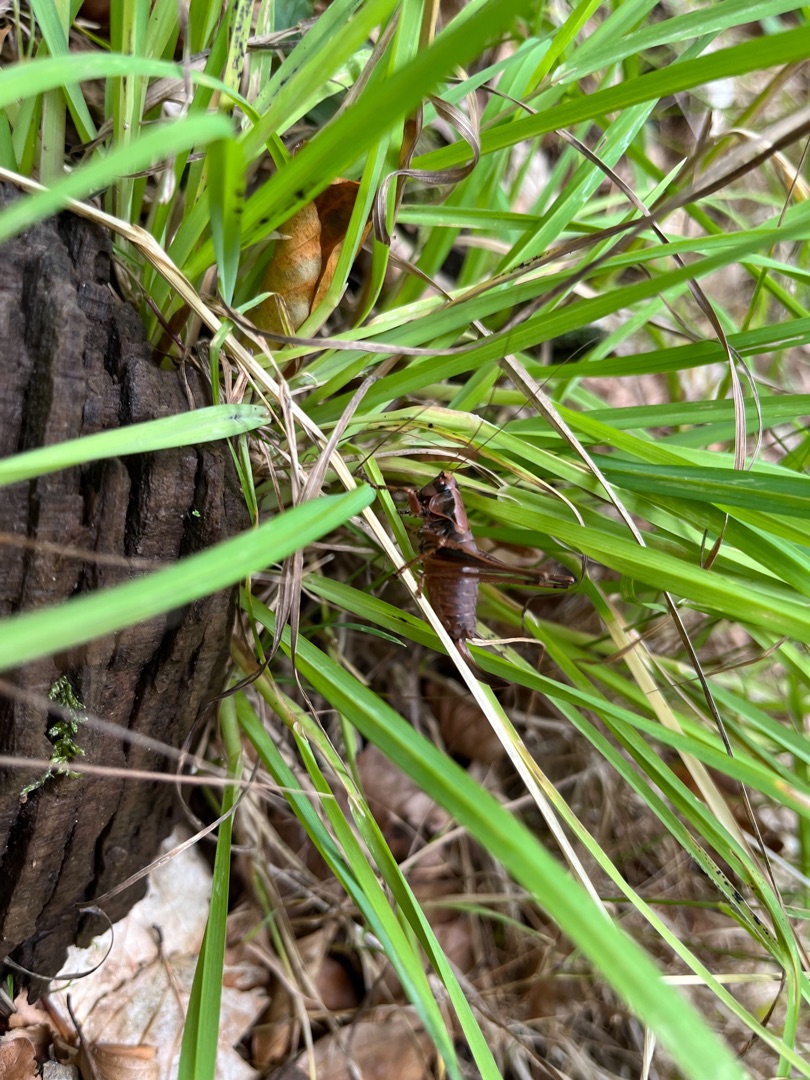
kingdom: Animalia
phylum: Arthropoda
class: Insecta
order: Orthoptera
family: Tettigoniidae
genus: Pholidoptera
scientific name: Pholidoptera griseoaptera
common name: Buskgræshoppe
